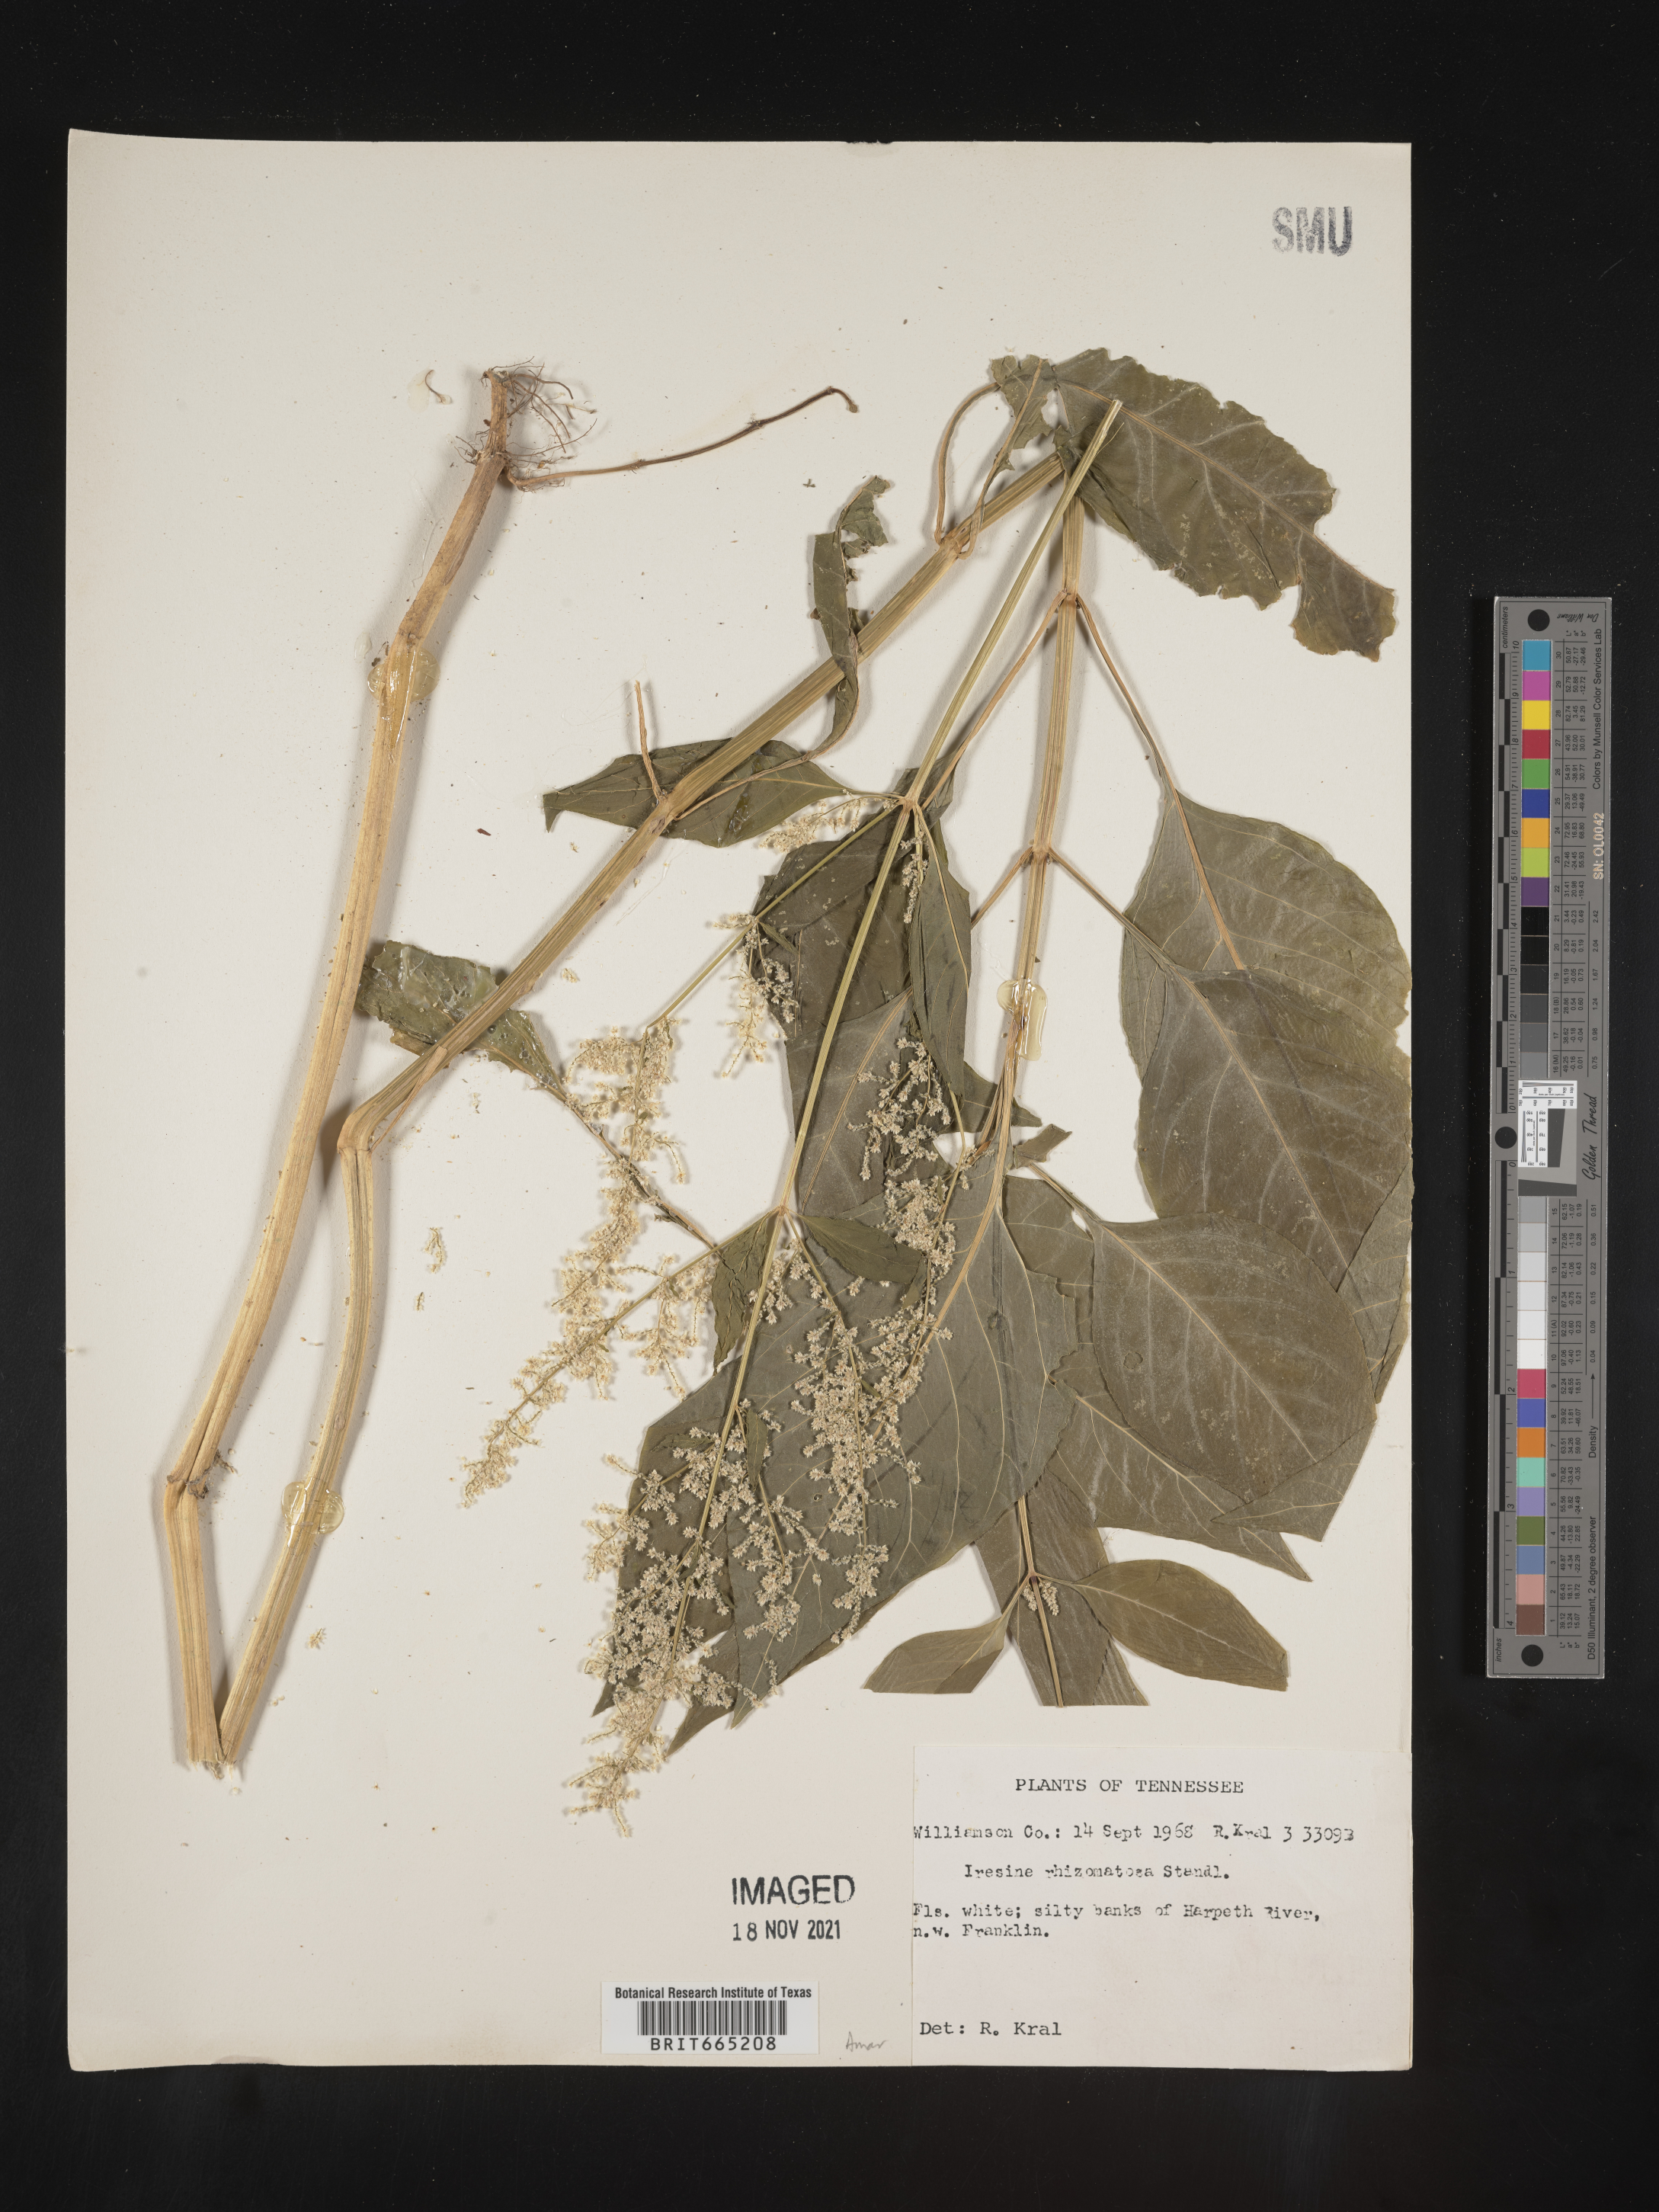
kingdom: Plantae
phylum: Tracheophyta
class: Magnoliopsida
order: Caryophyllales
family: Amaranthaceae
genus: Iresine
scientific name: Iresine rhizomatosa
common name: Juda's-bush
